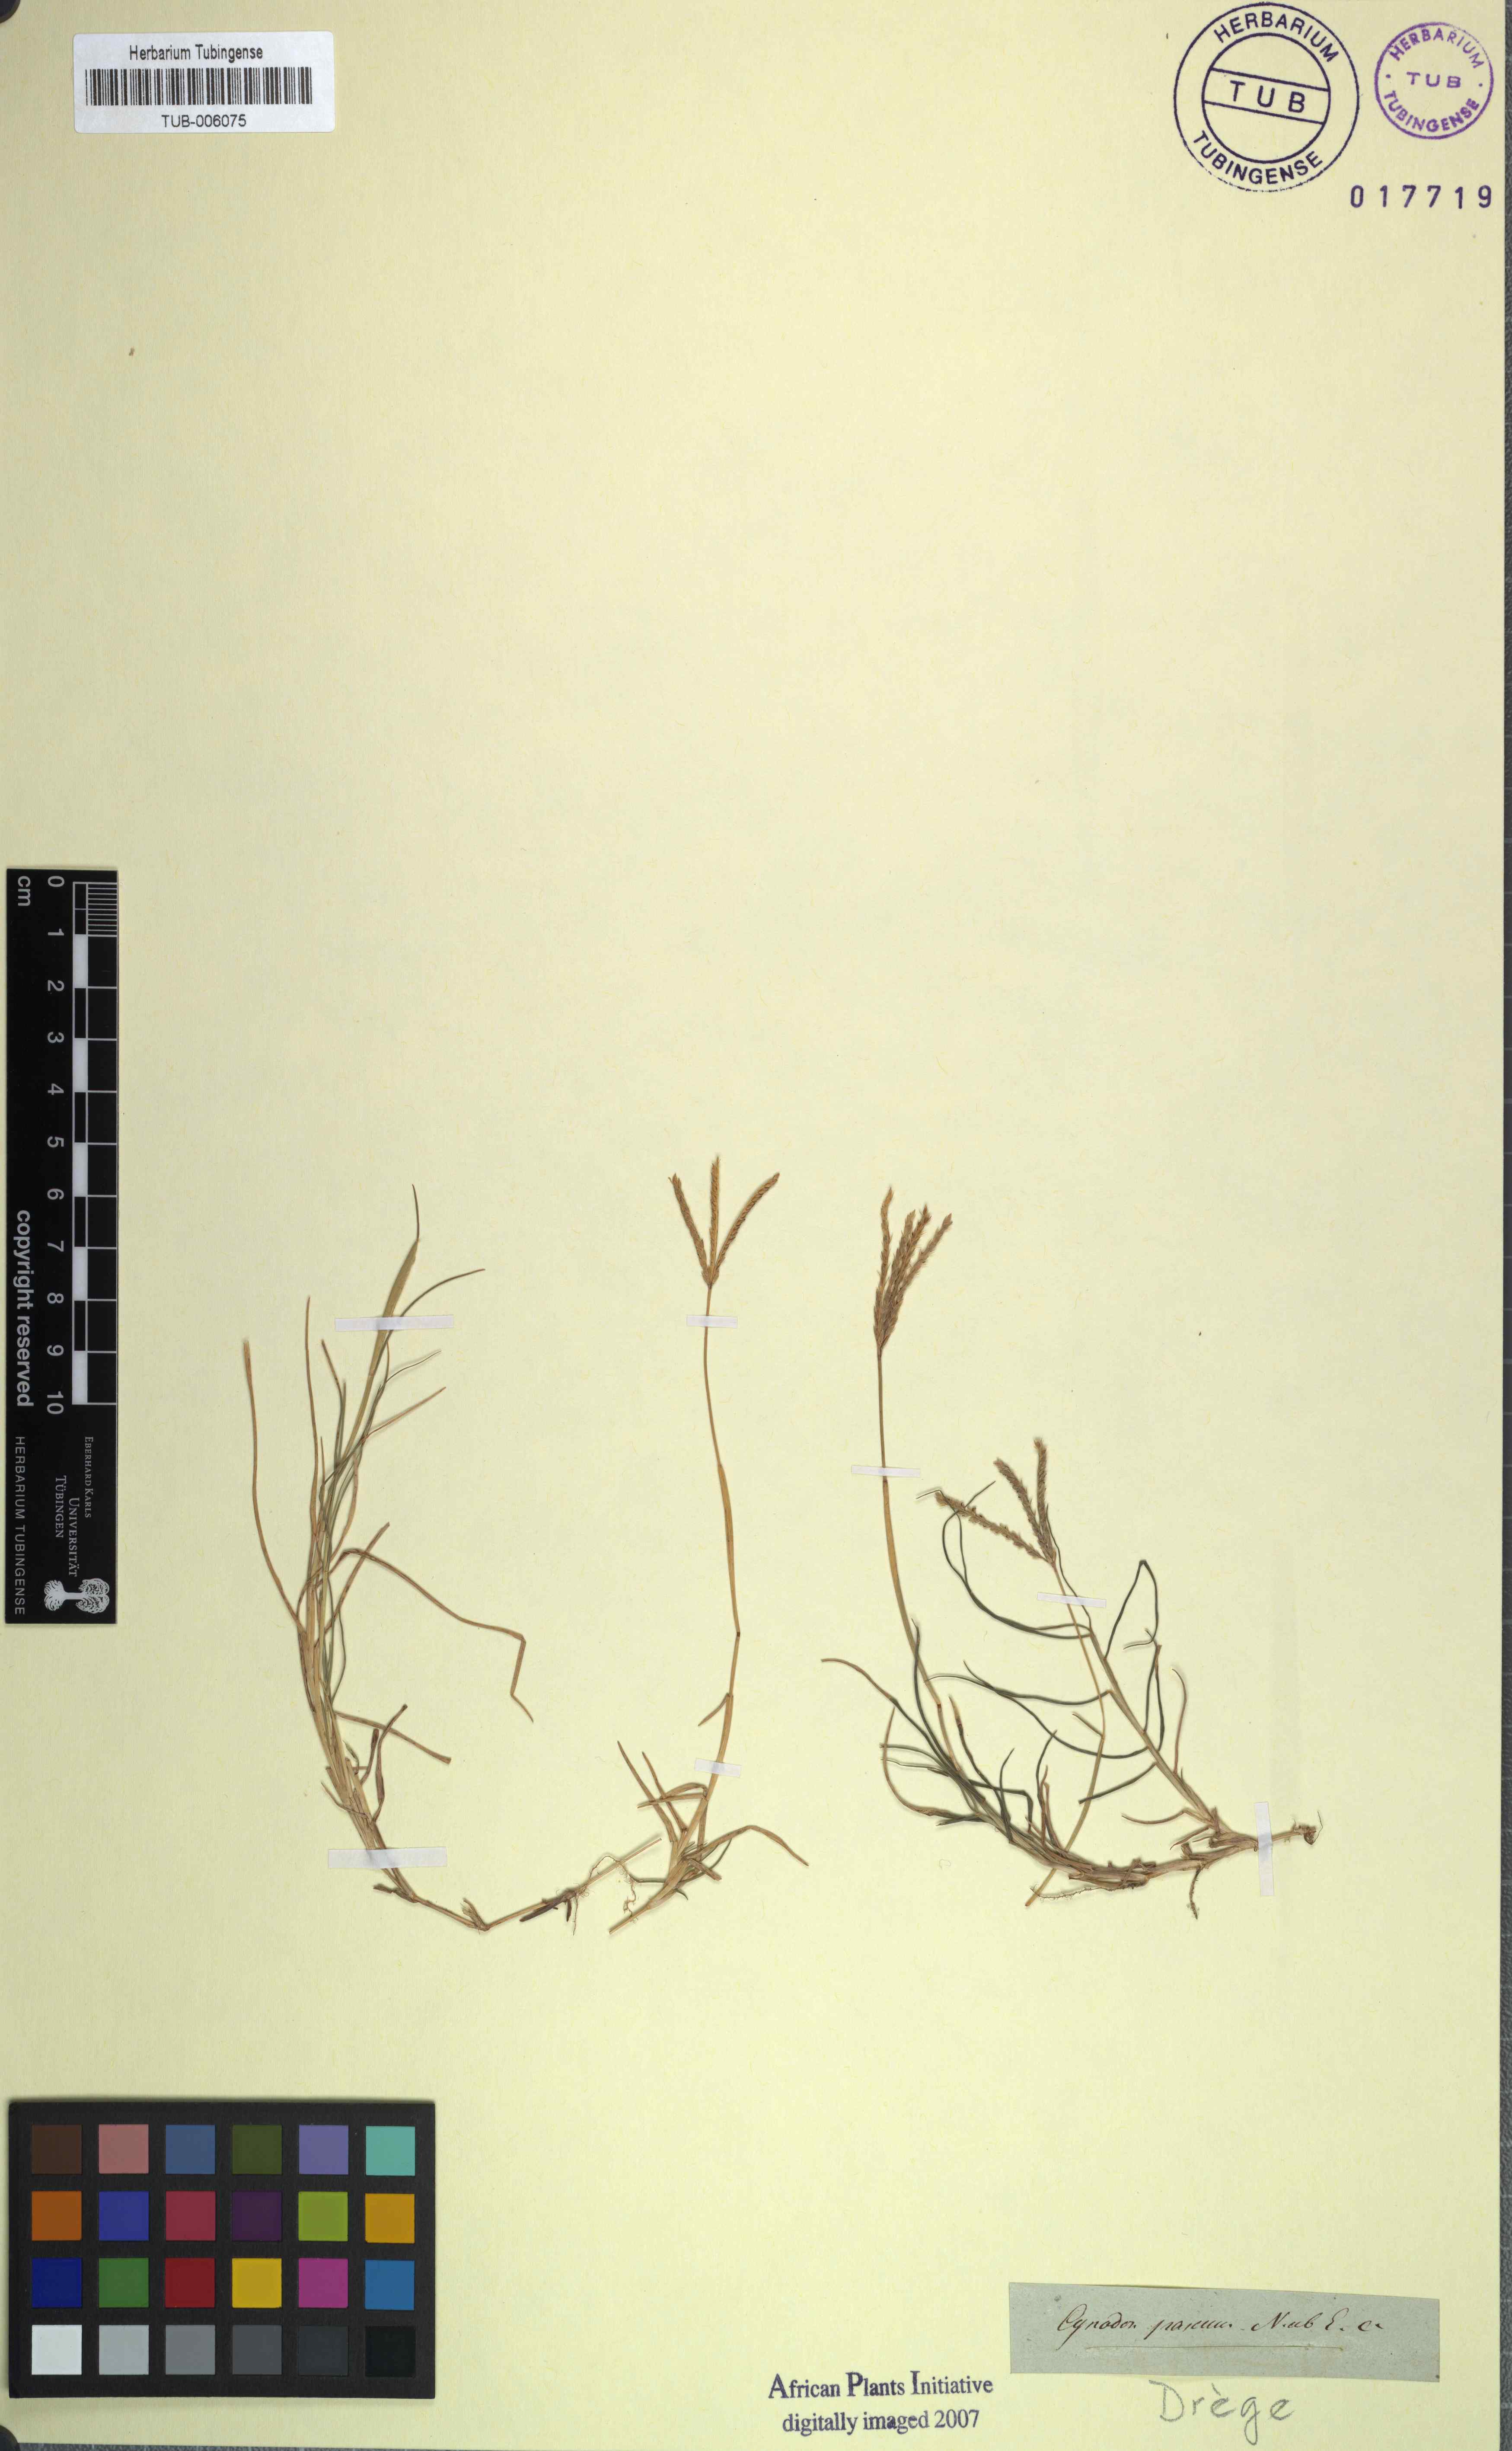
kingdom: Plantae
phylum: Tracheophyta
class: Liliopsida
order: Poales
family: Poaceae
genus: Cynodon
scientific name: Cynodon dactylon
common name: Bermuda grass
